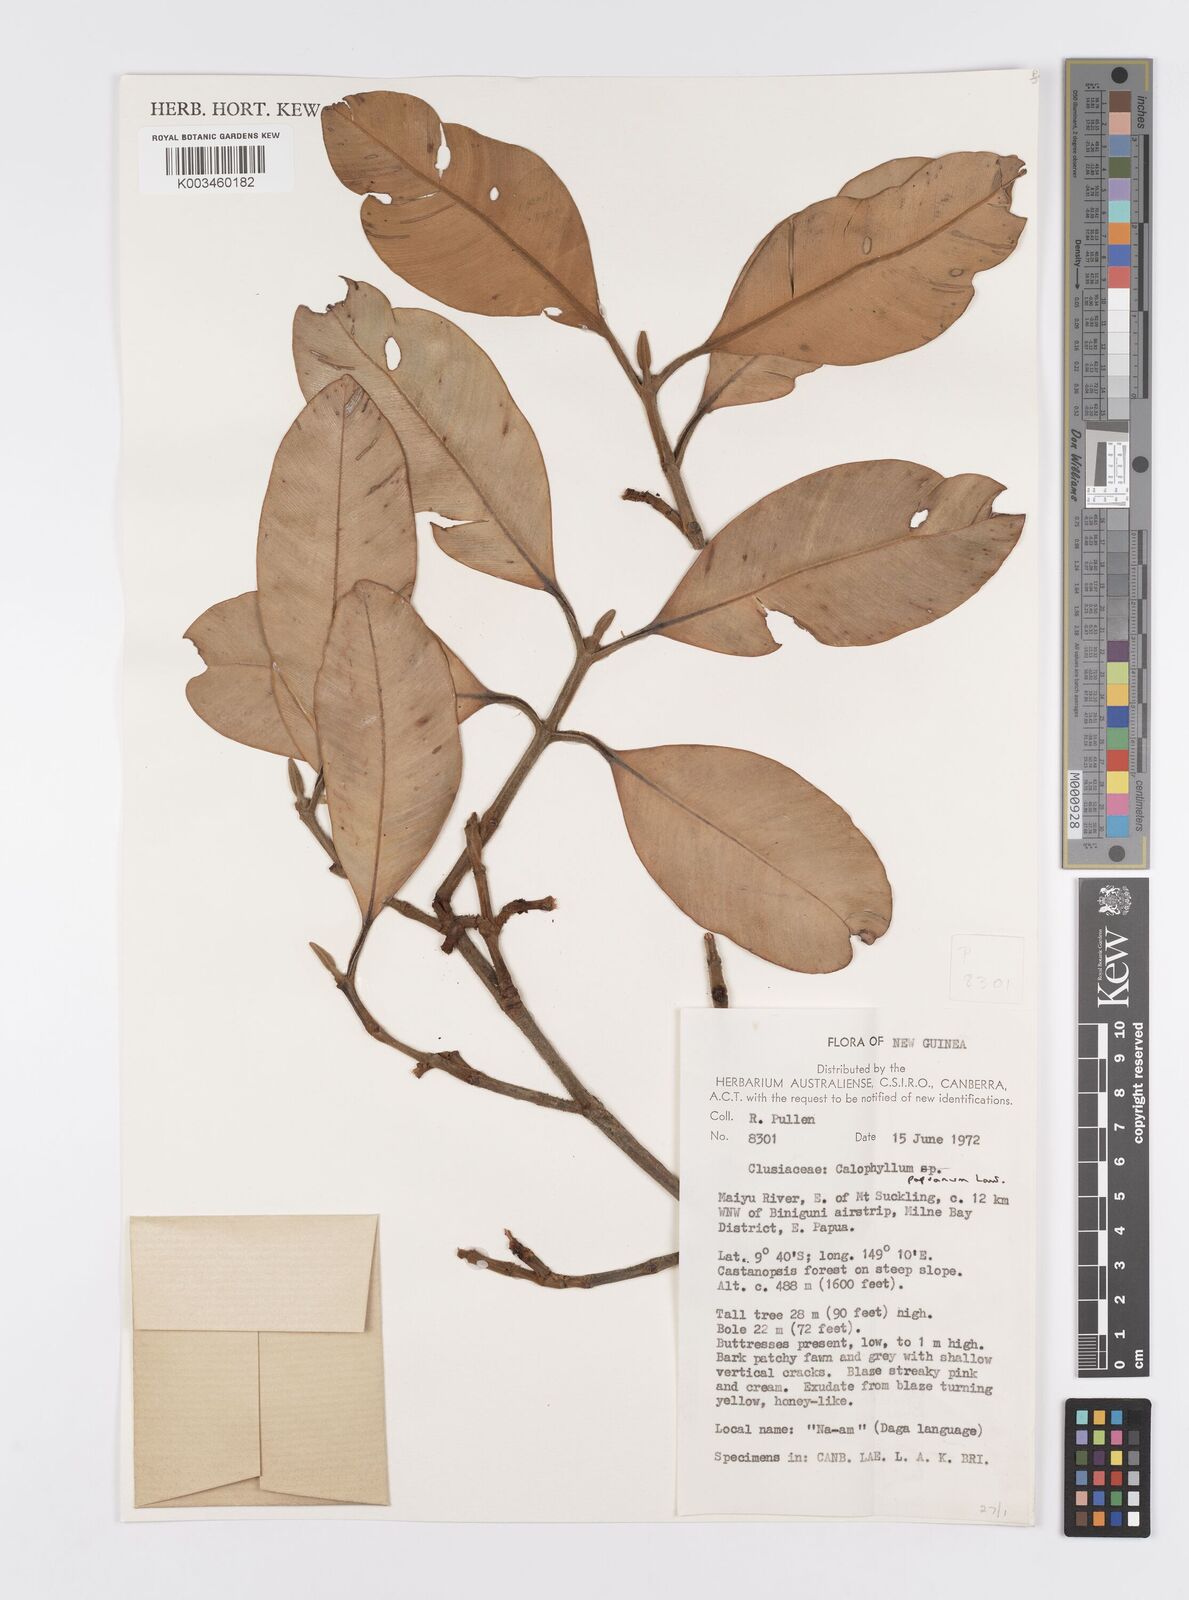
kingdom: Plantae
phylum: Tracheophyta
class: Magnoliopsida
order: Malpighiales
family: Calophyllaceae
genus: Calophyllum
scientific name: Calophyllum papuanum
